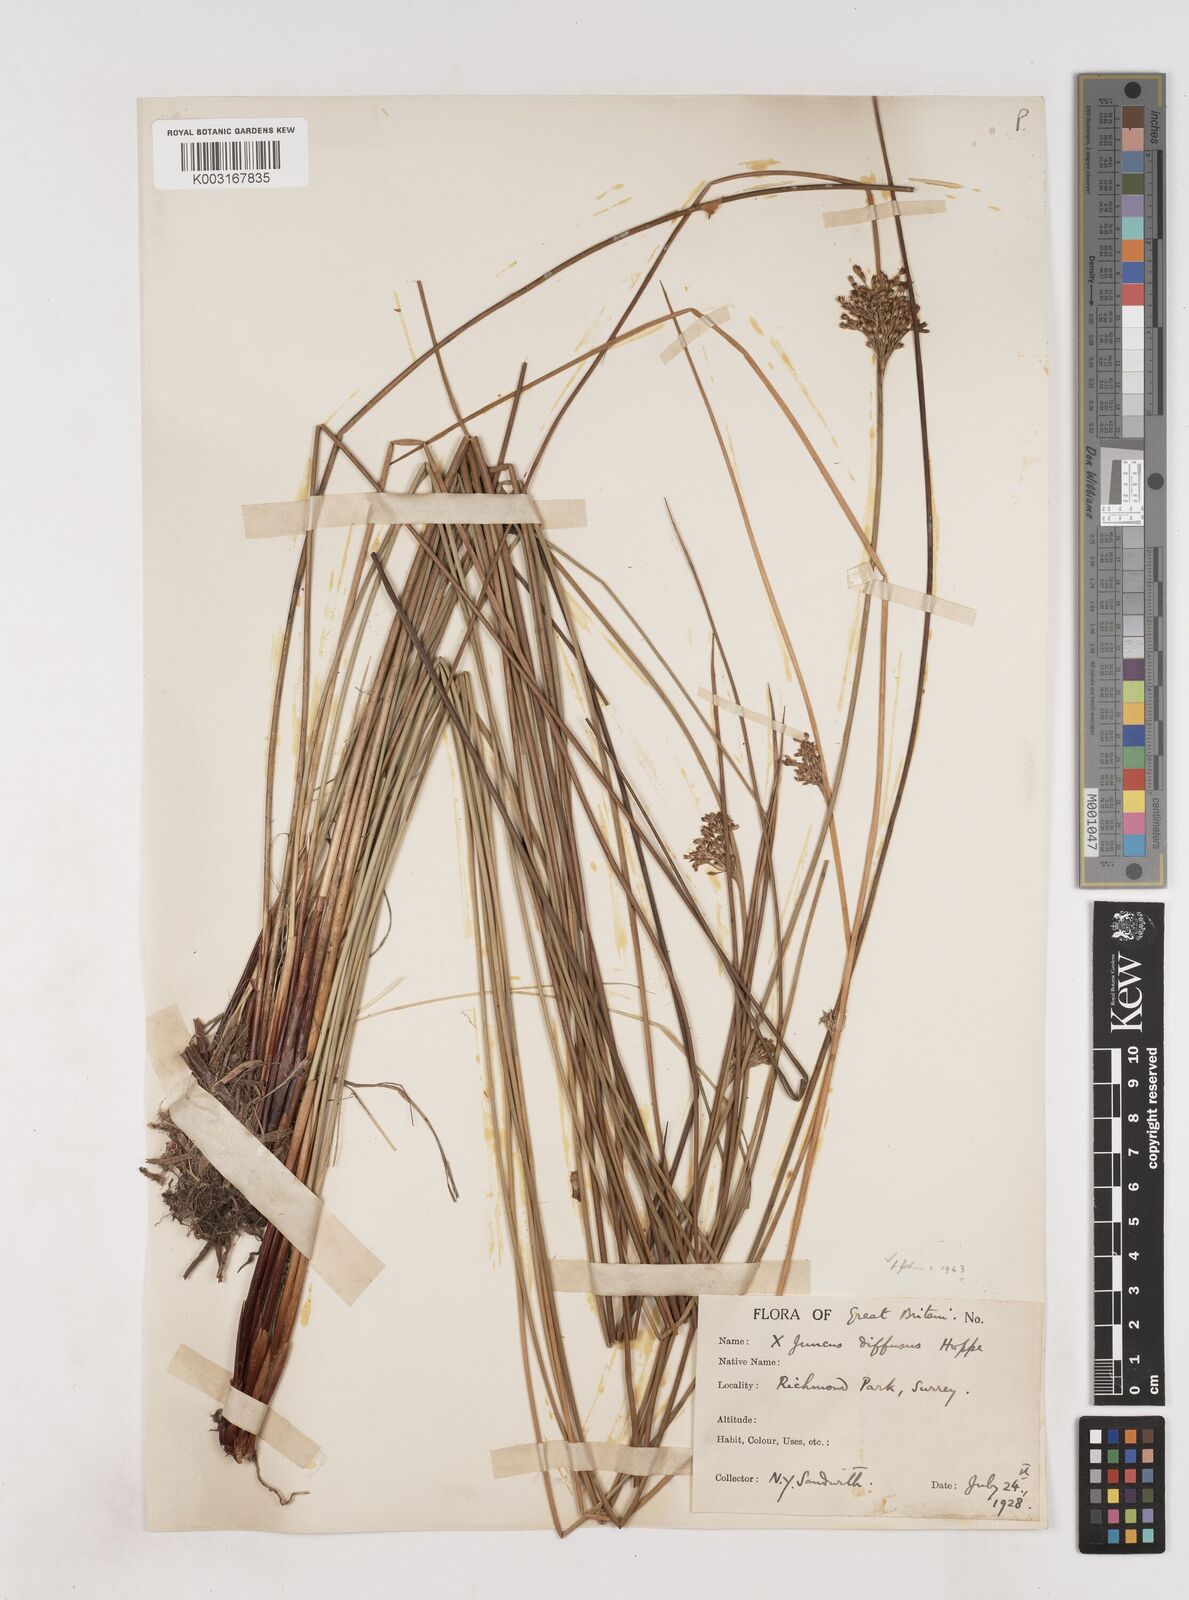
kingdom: Plantae
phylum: Tracheophyta
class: Liliopsida
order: Poales
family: Juncaceae
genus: Juncus
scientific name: Juncus effusus
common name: Soft rush
